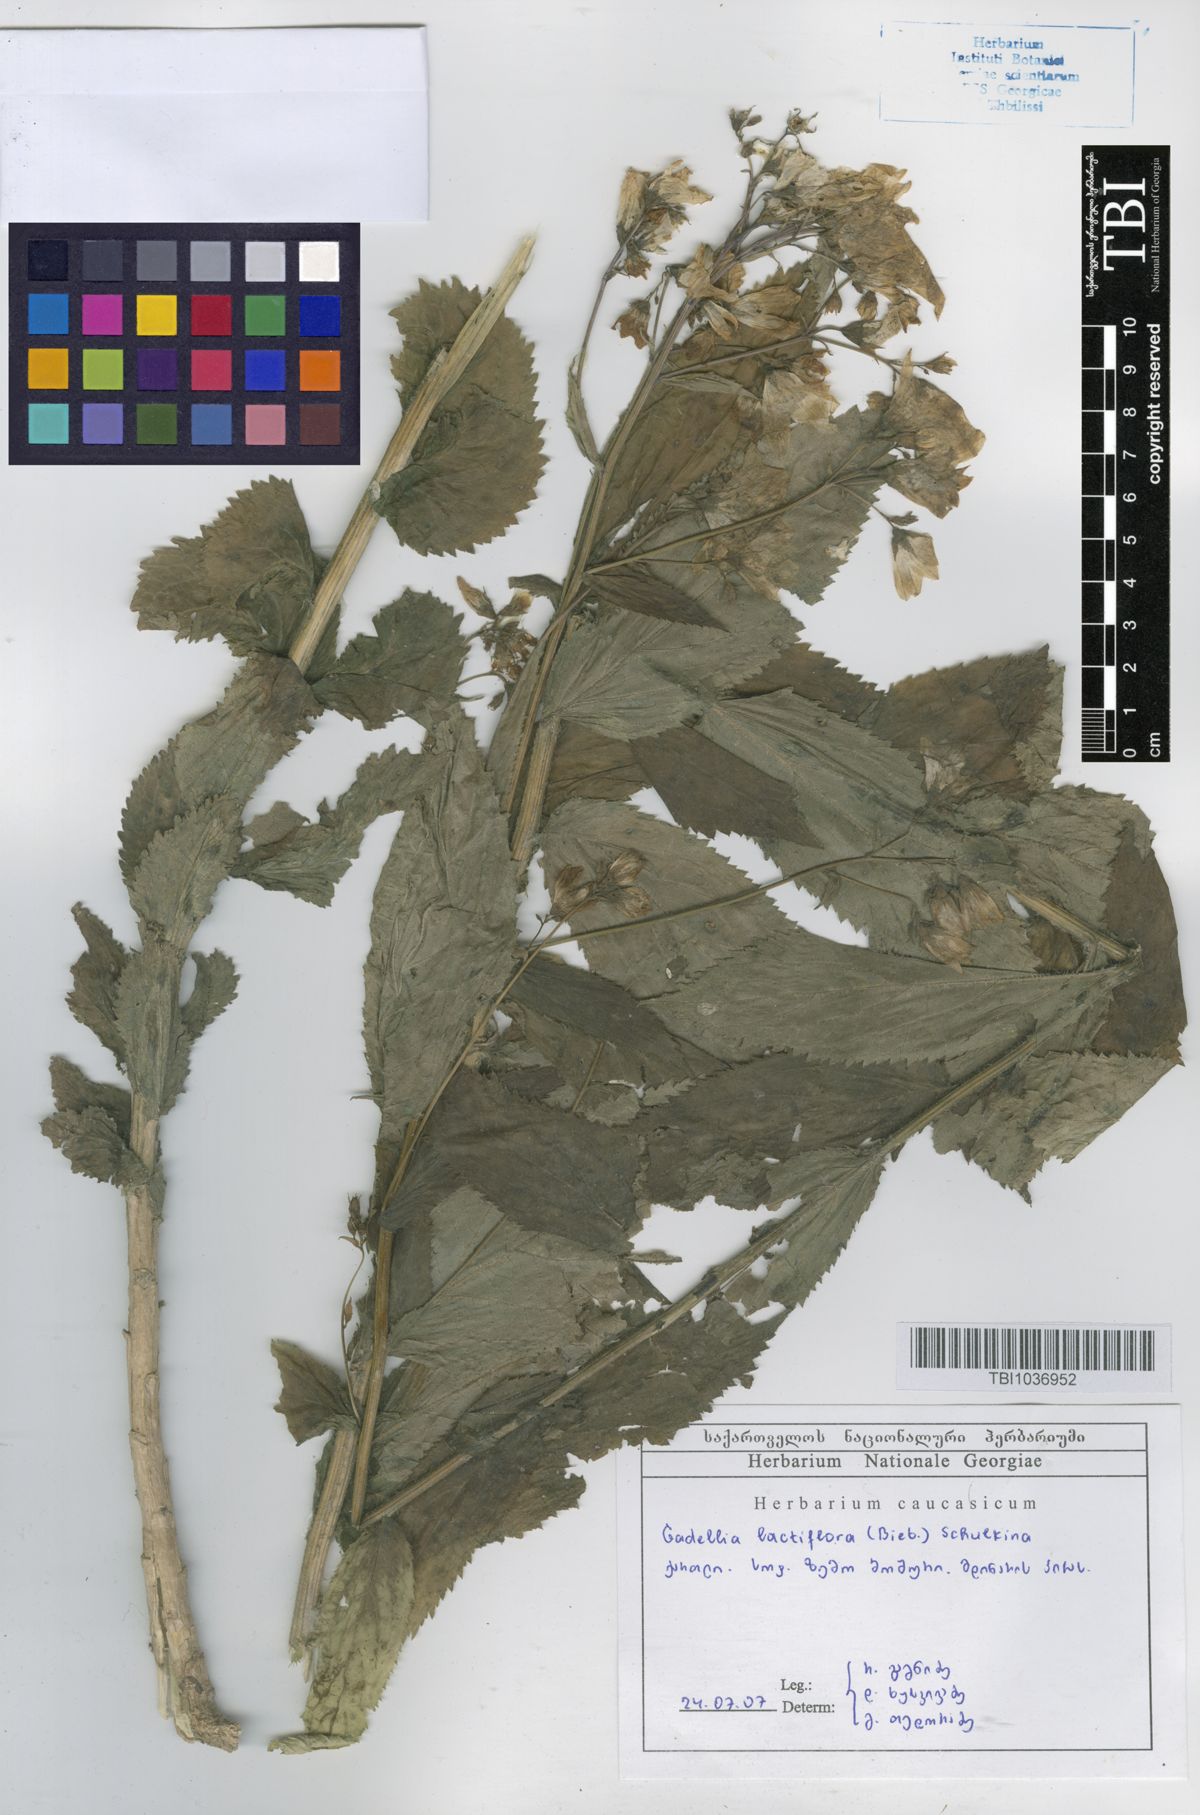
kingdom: Plantae
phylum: Tracheophyta
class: Magnoliopsida
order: Asterales
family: Campanulaceae
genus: Campanula
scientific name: Campanula lactiflora
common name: Milky bellflower
